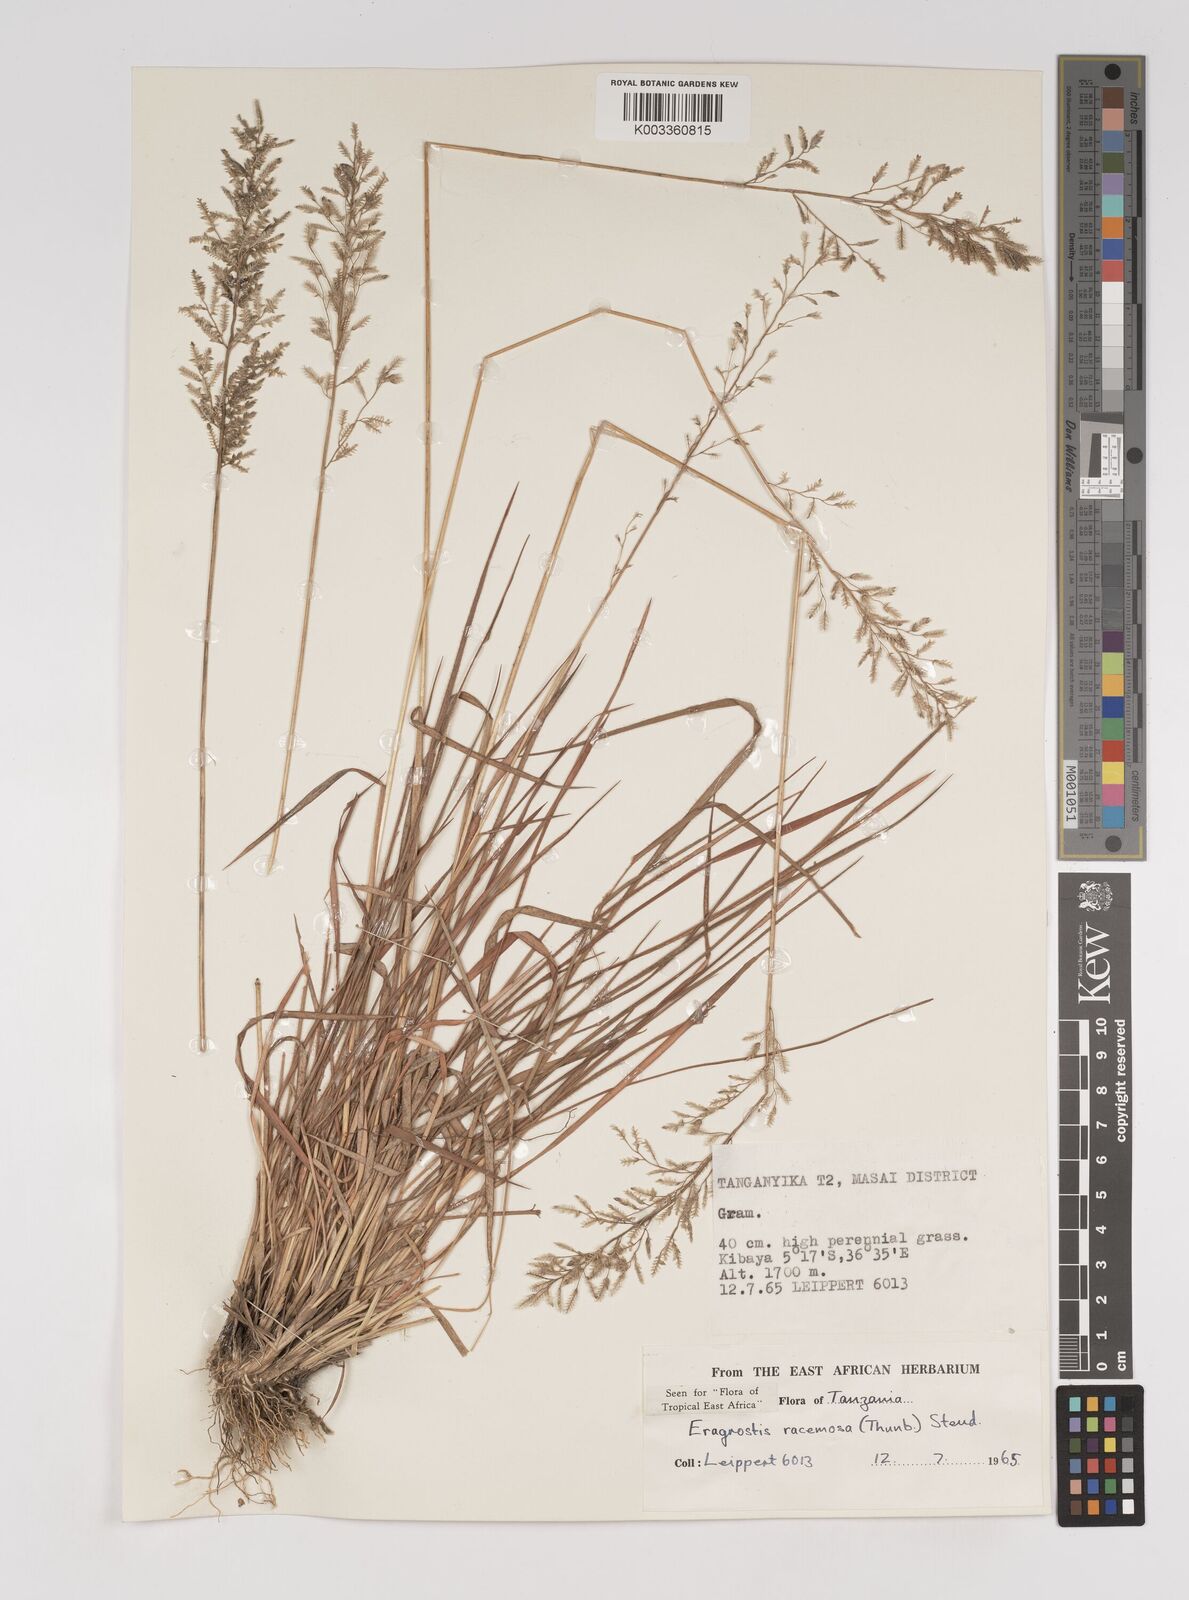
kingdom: Plantae
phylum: Tracheophyta
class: Liliopsida
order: Poales
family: Poaceae
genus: Eragrostis
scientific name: Eragrostis racemosa
